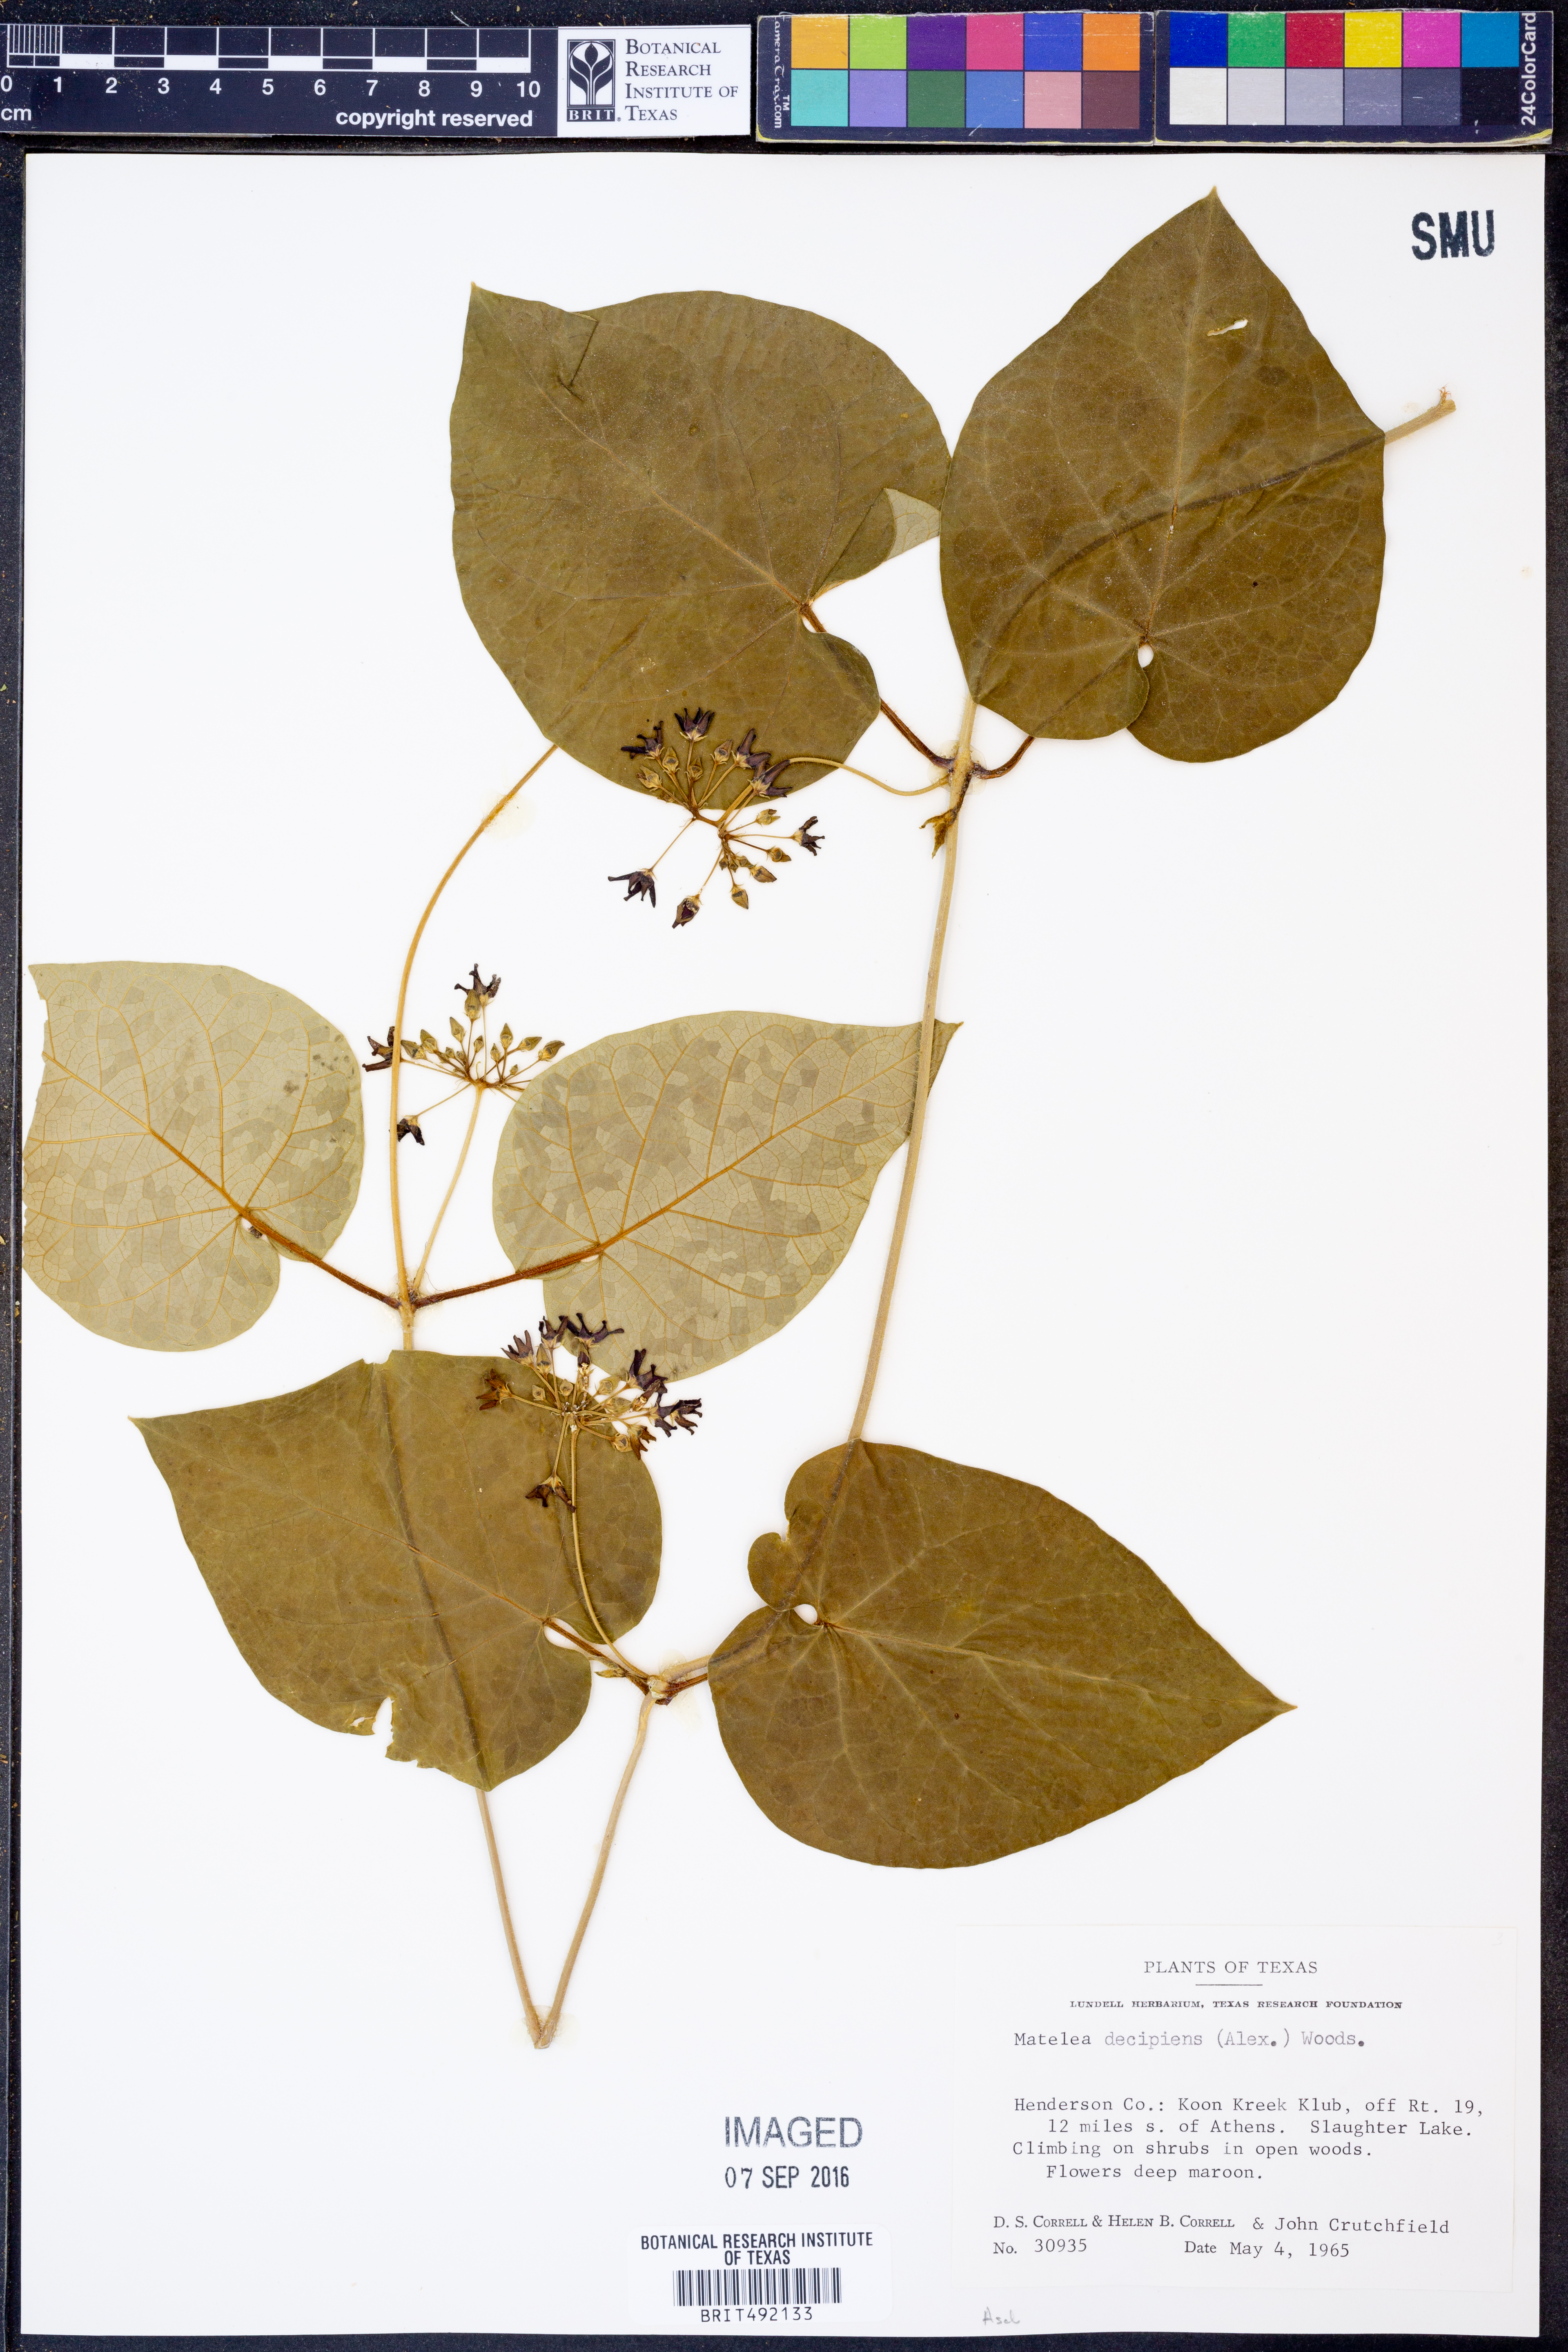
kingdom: Plantae
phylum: Tracheophyta
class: Magnoliopsida
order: Gentianales
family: Apocynaceae
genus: Matelea
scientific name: Matelea decipiens
